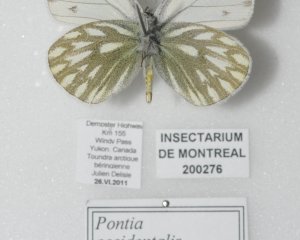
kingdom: Animalia
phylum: Arthropoda
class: Insecta
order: Lepidoptera
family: Pieridae
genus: Pontia
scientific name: Pontia occidentalis
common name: Western White
